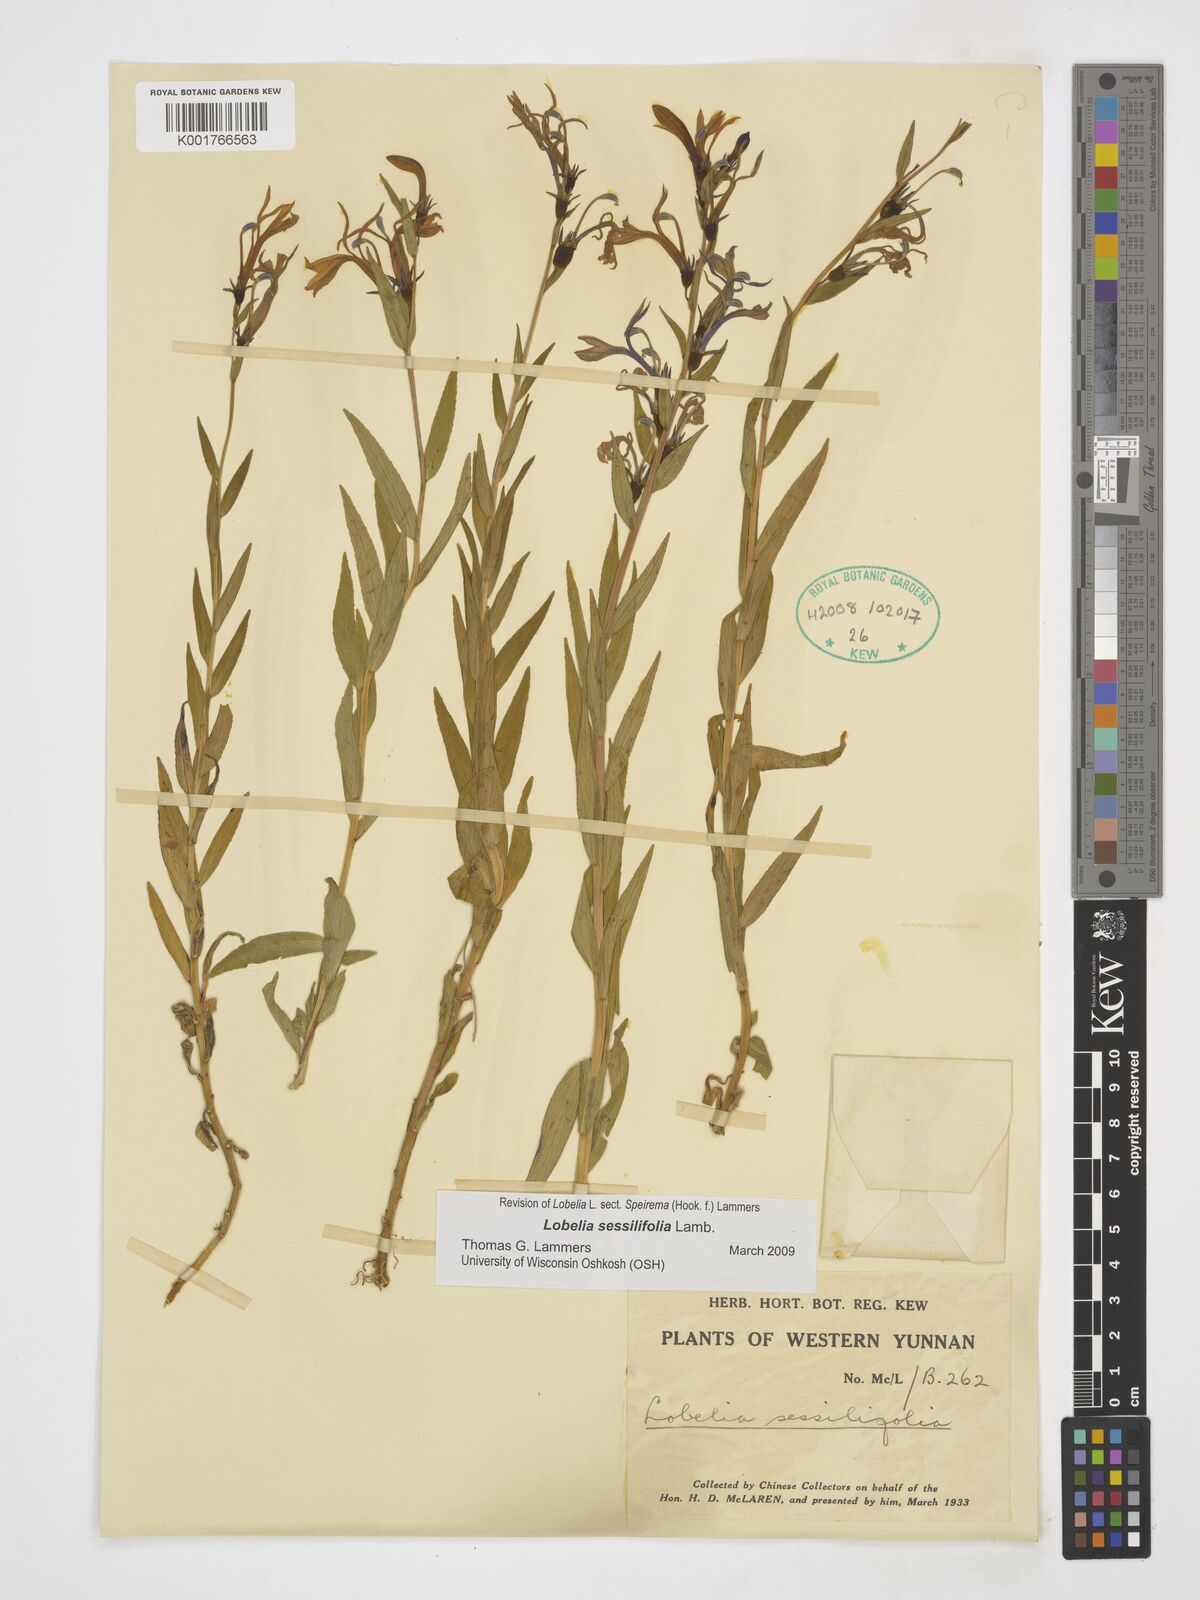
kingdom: Plantae
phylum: Tracheophyta
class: Magnoliopsida
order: Asterales
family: Campanulaceae
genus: Lobelia
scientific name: Lobelia sessilifolia
